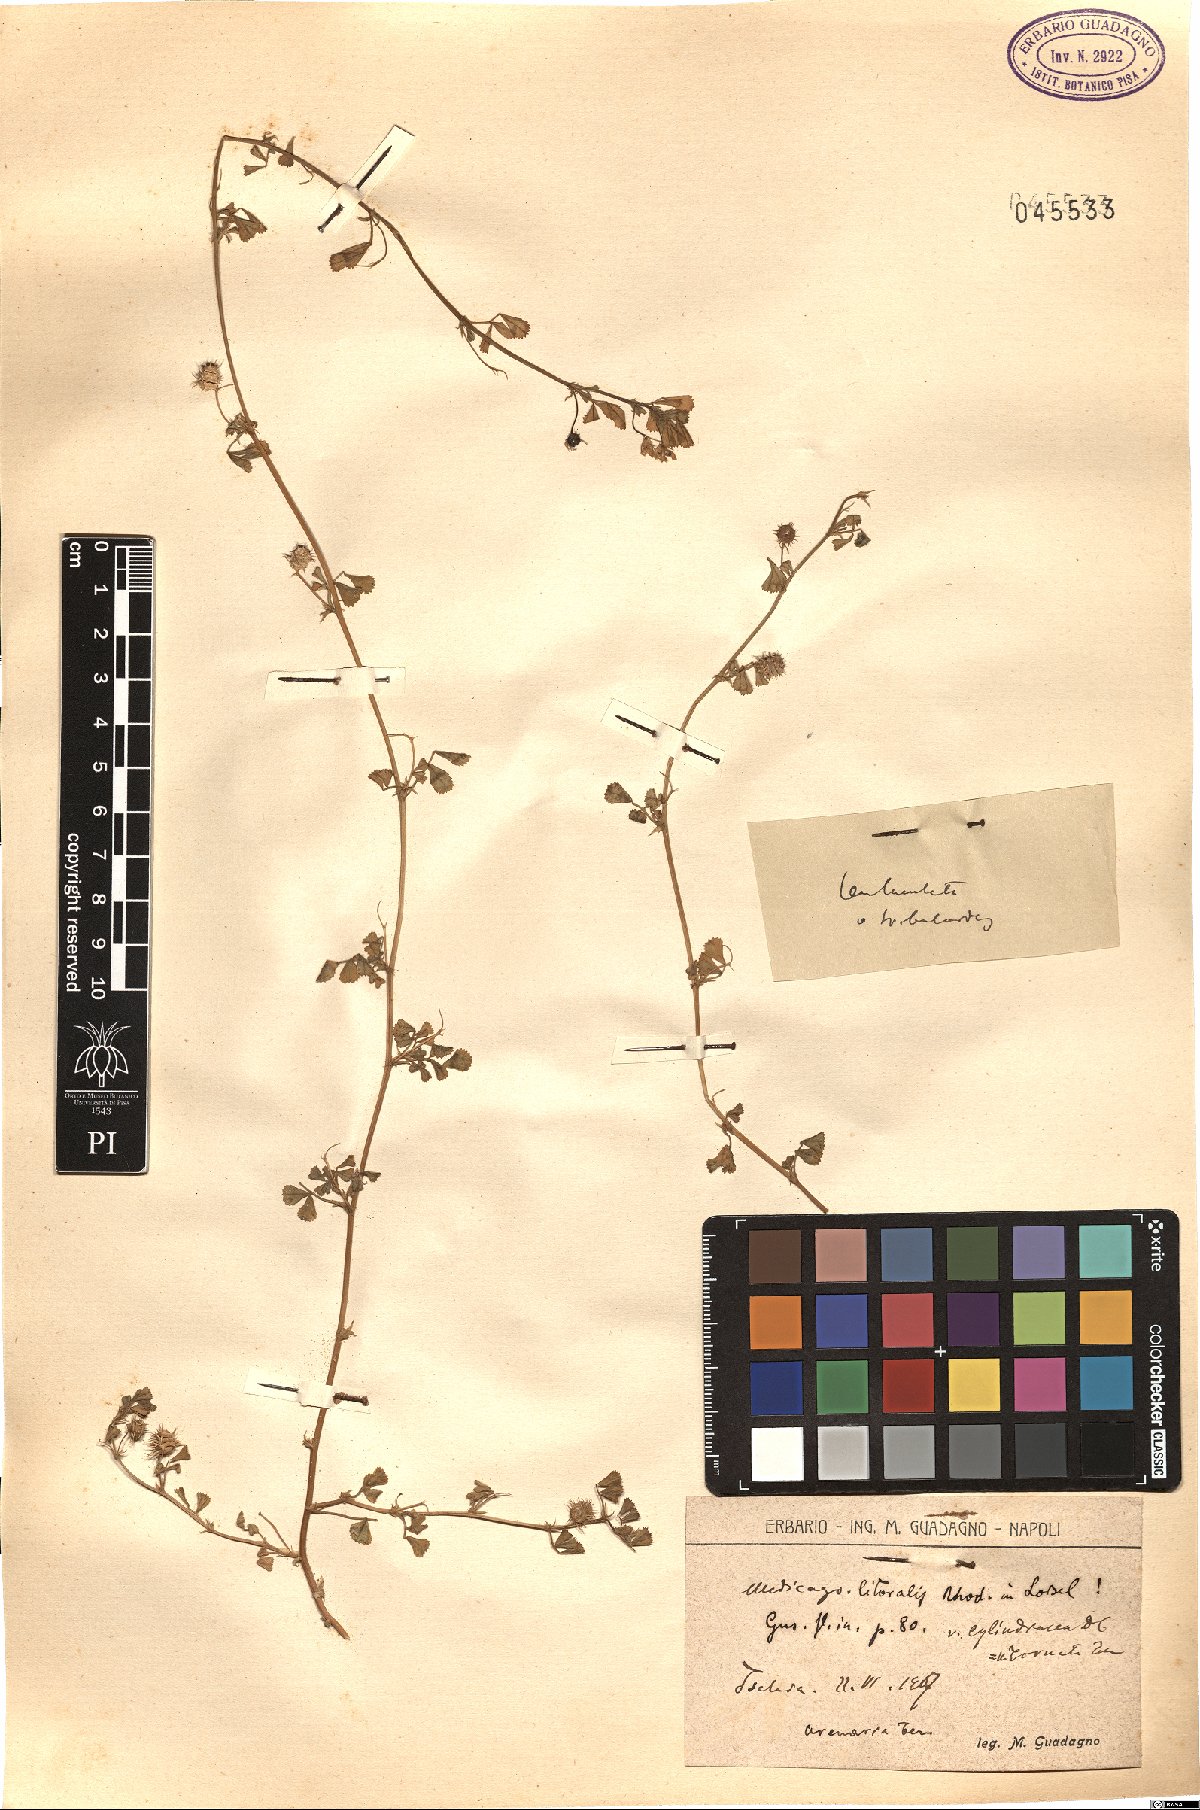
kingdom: Plantae
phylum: Tracheophyta
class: Magnoliopsida
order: Fabales
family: Fabaceae
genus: Medicago
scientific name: Medicago littoralis
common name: Shore medick
